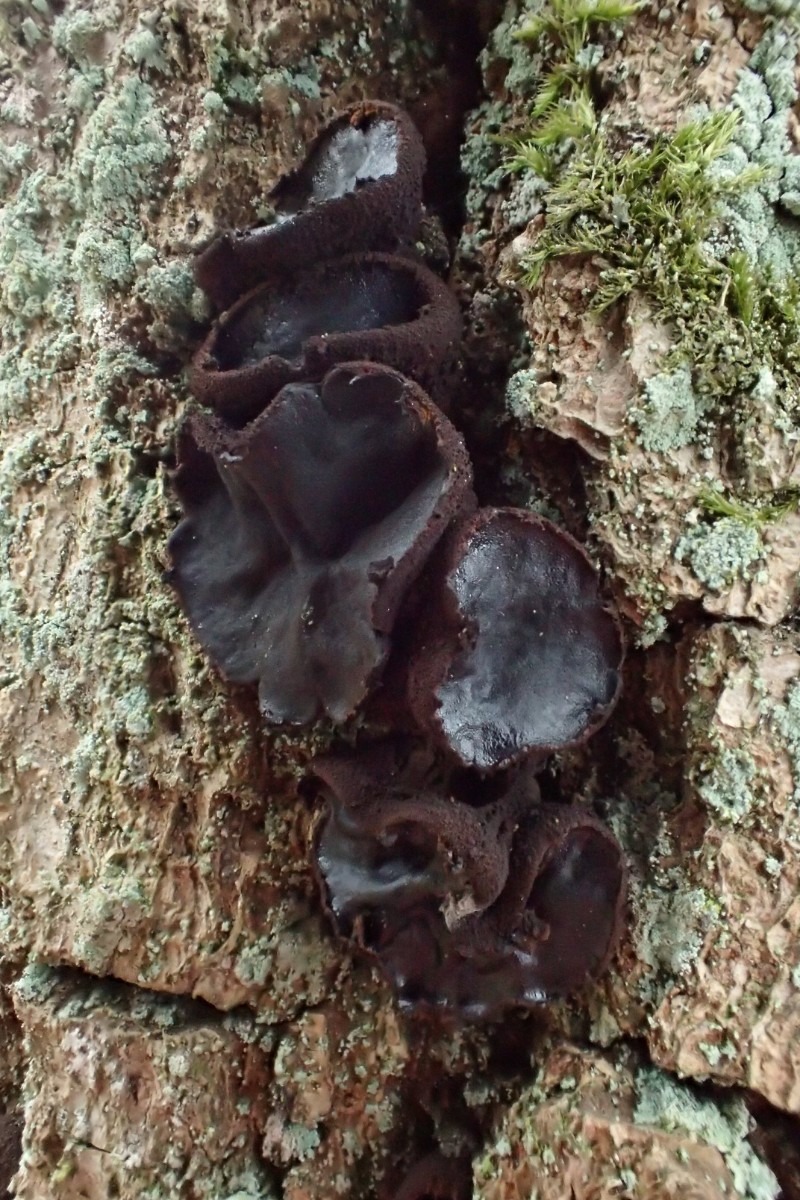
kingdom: Fungi
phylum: Ascomycota
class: Leotiomycetes
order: Phacidiales
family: Phacidiaceae
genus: Bulgaria
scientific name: Bulgaria inquinans
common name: afsmittende topsvamp
